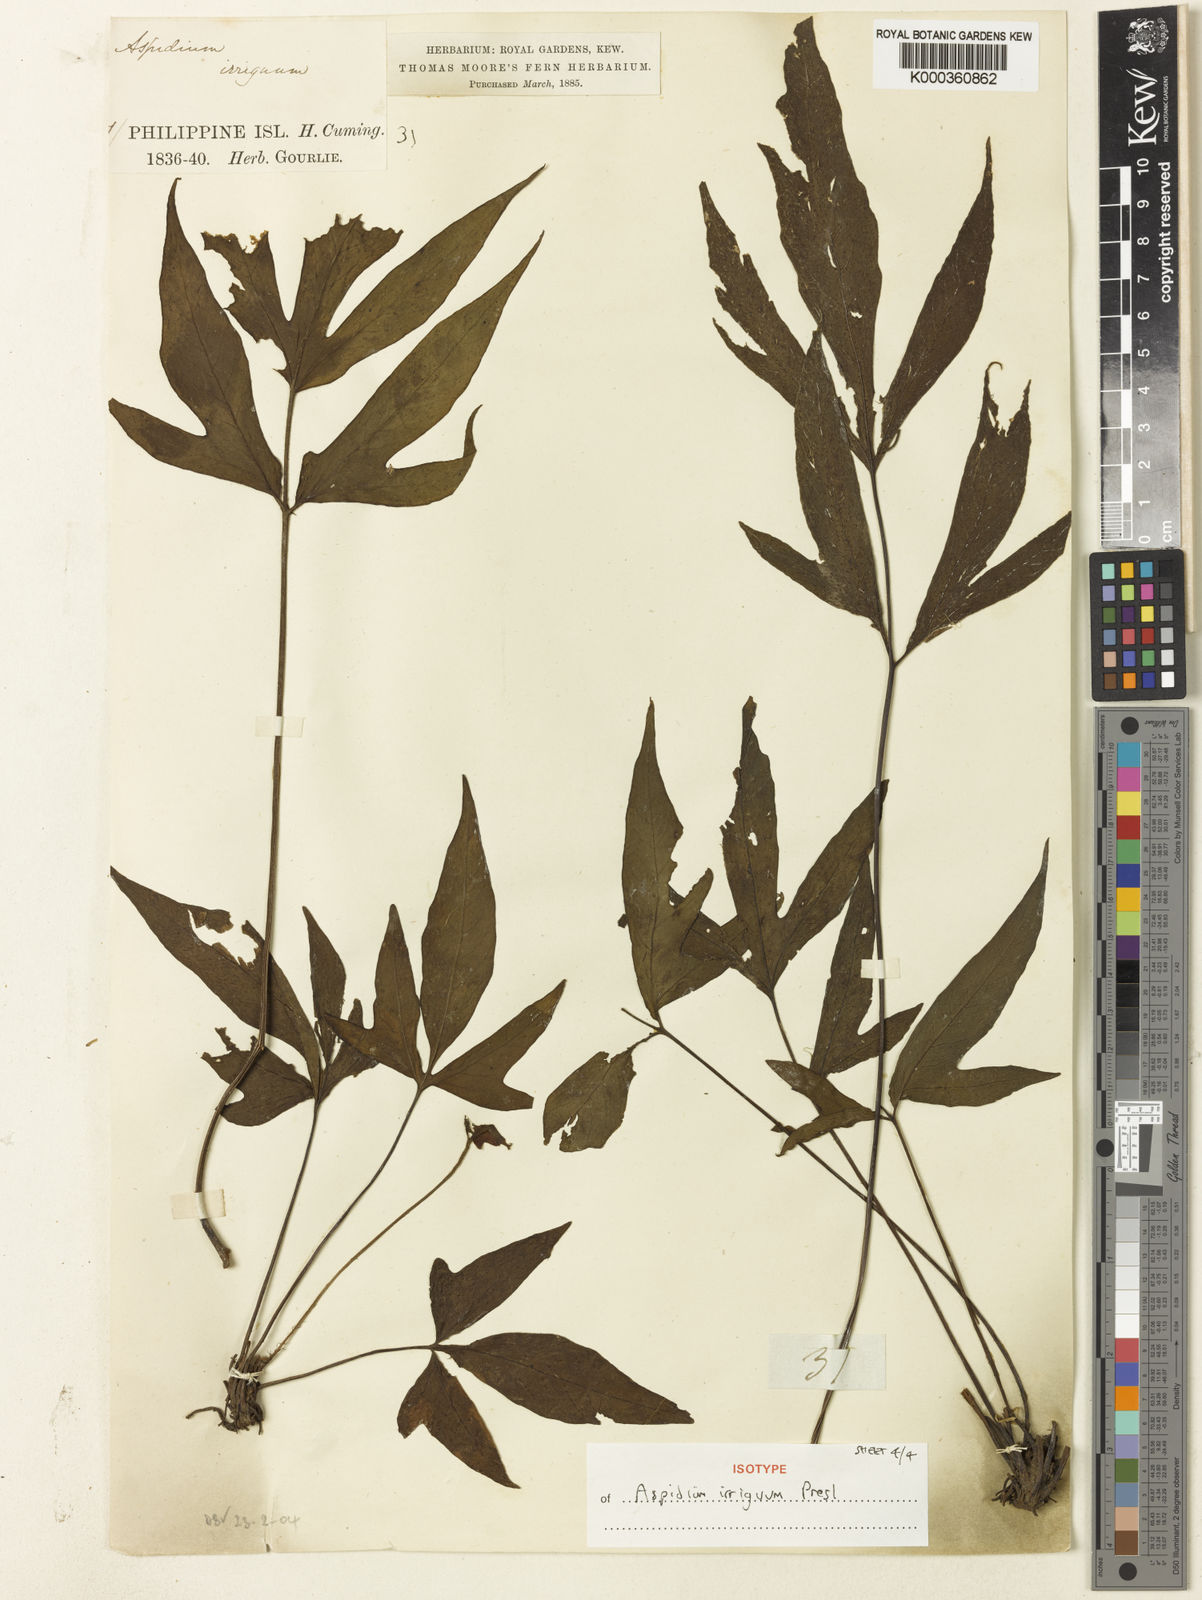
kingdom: Plantae
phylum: Tracheophyta
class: Polypodiopsida
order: Polypodiales
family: Tectariaceae
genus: Tectaria
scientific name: Tectaria
